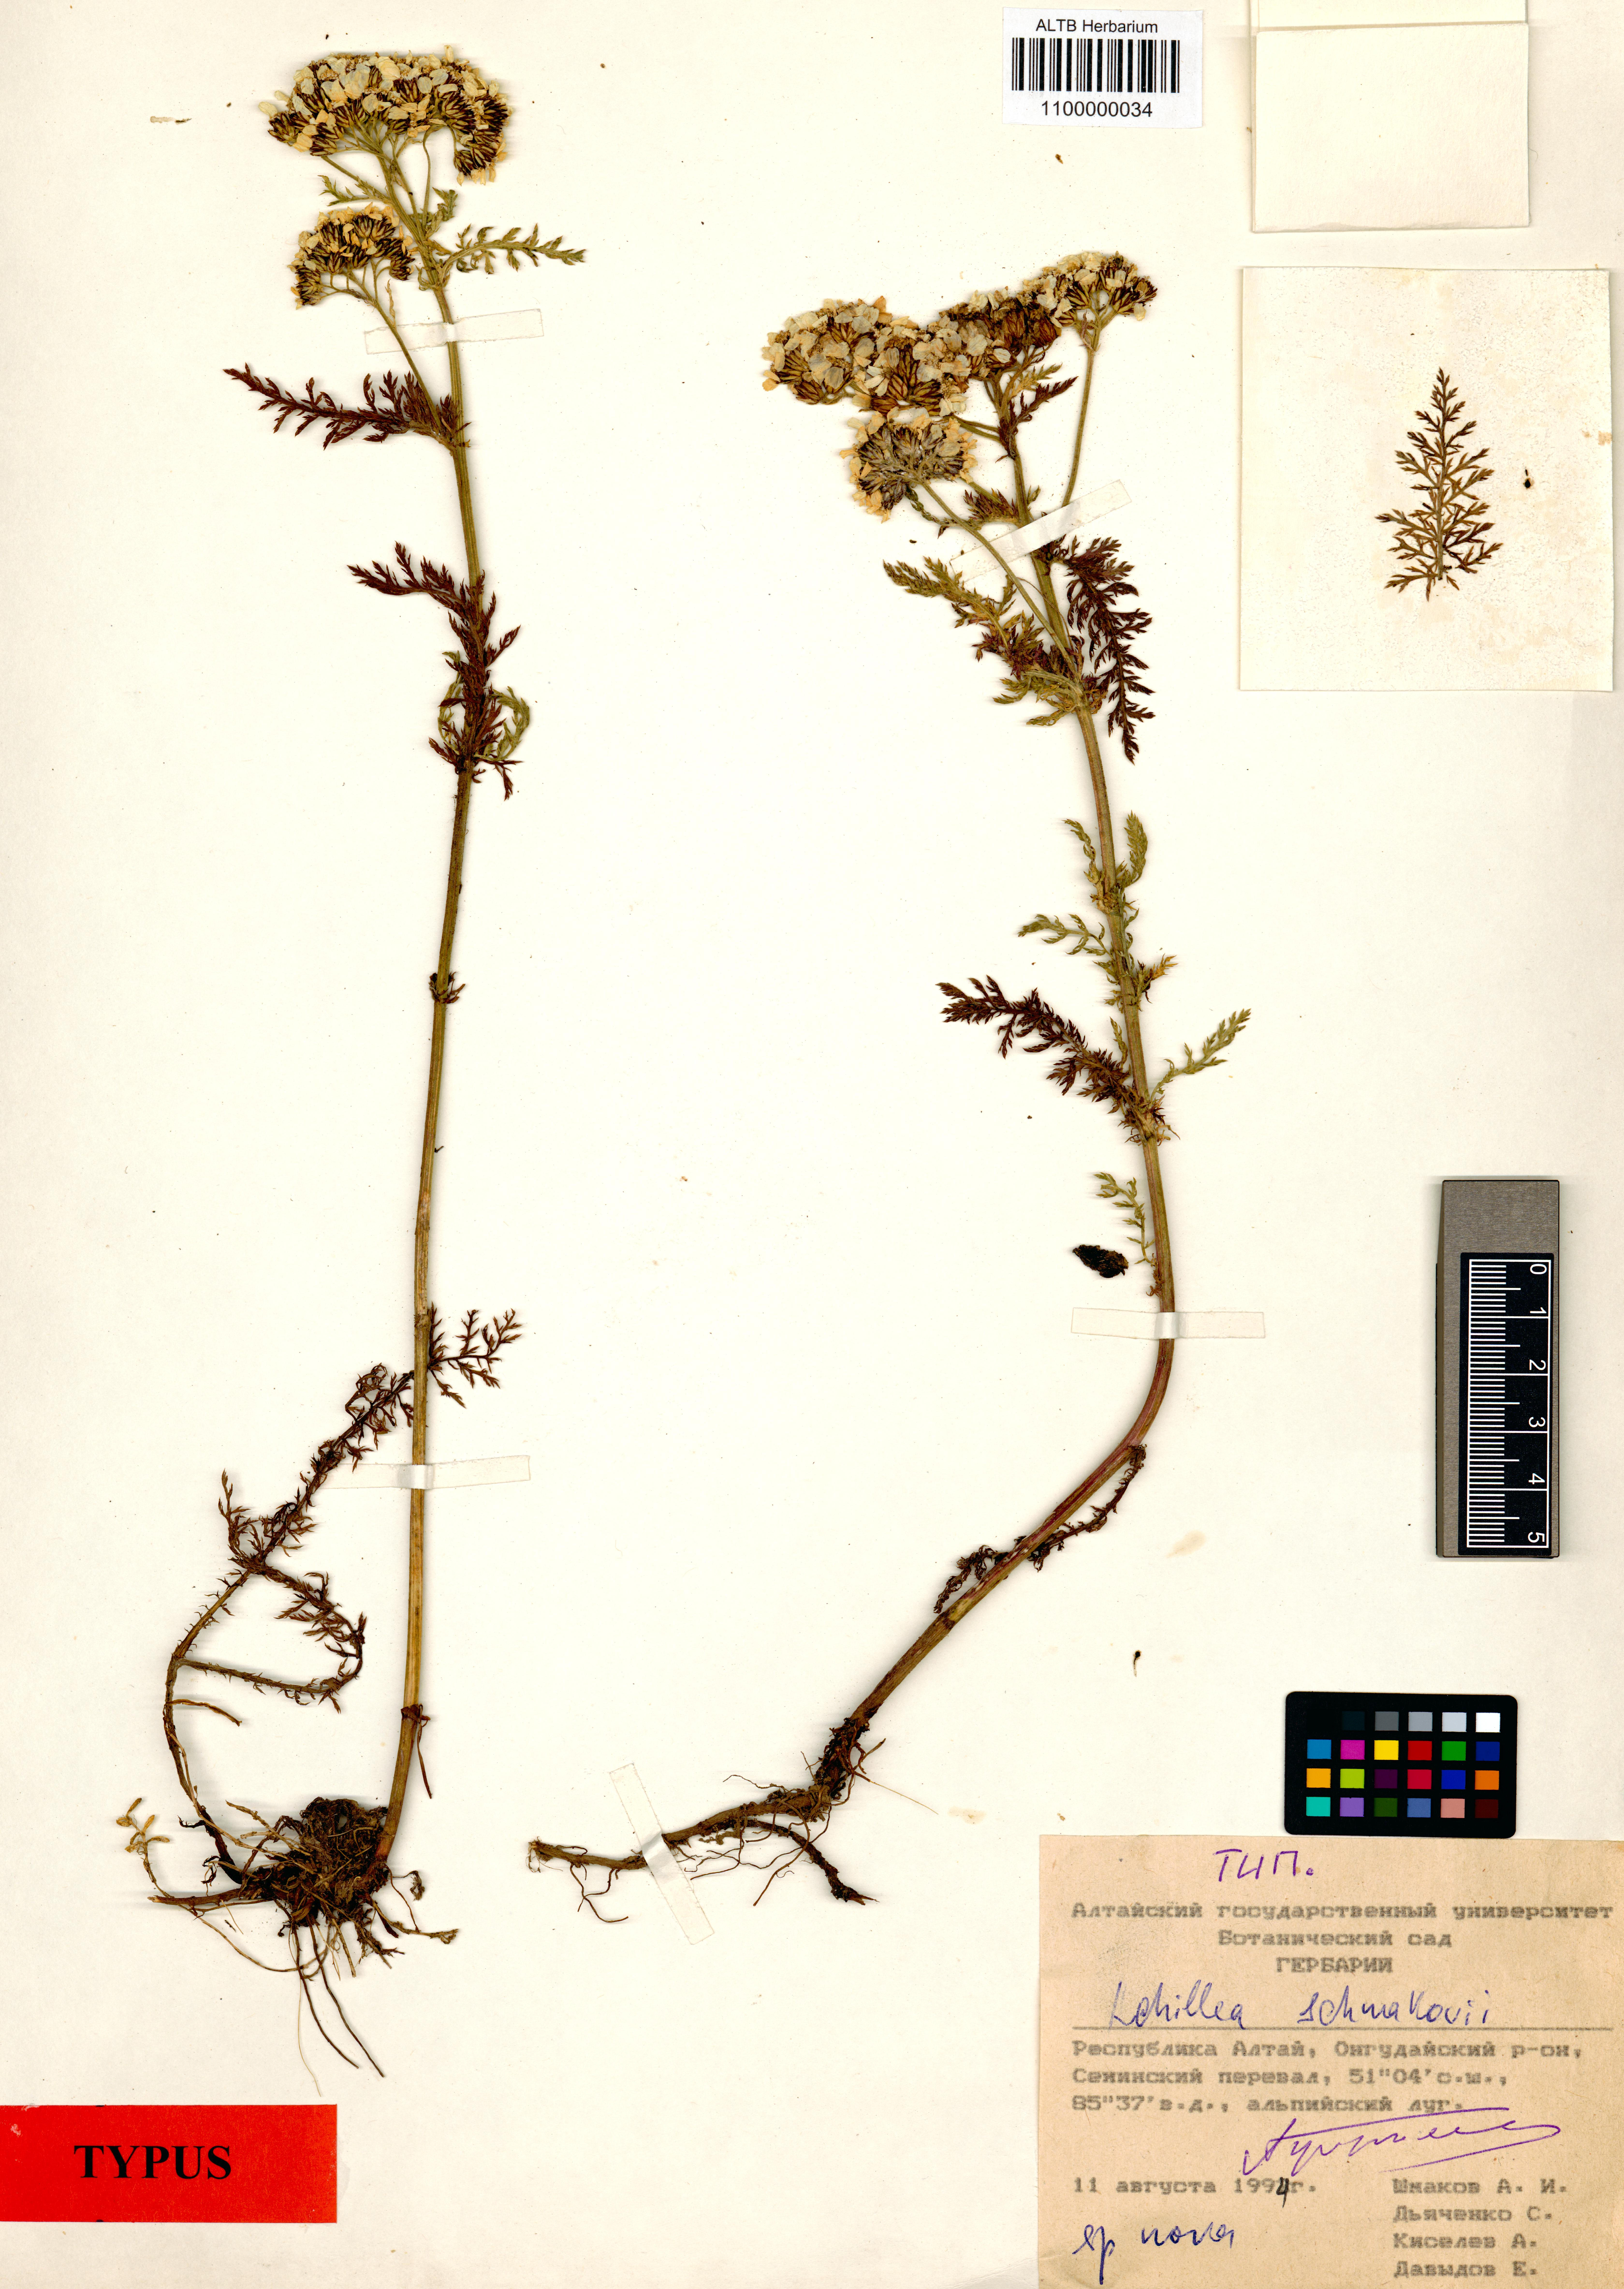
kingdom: Plantae
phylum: Tracheophyta
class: Magnoliopsida
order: Asterales
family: Asteraceae
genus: Achillea
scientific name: Achillea schmakovii
